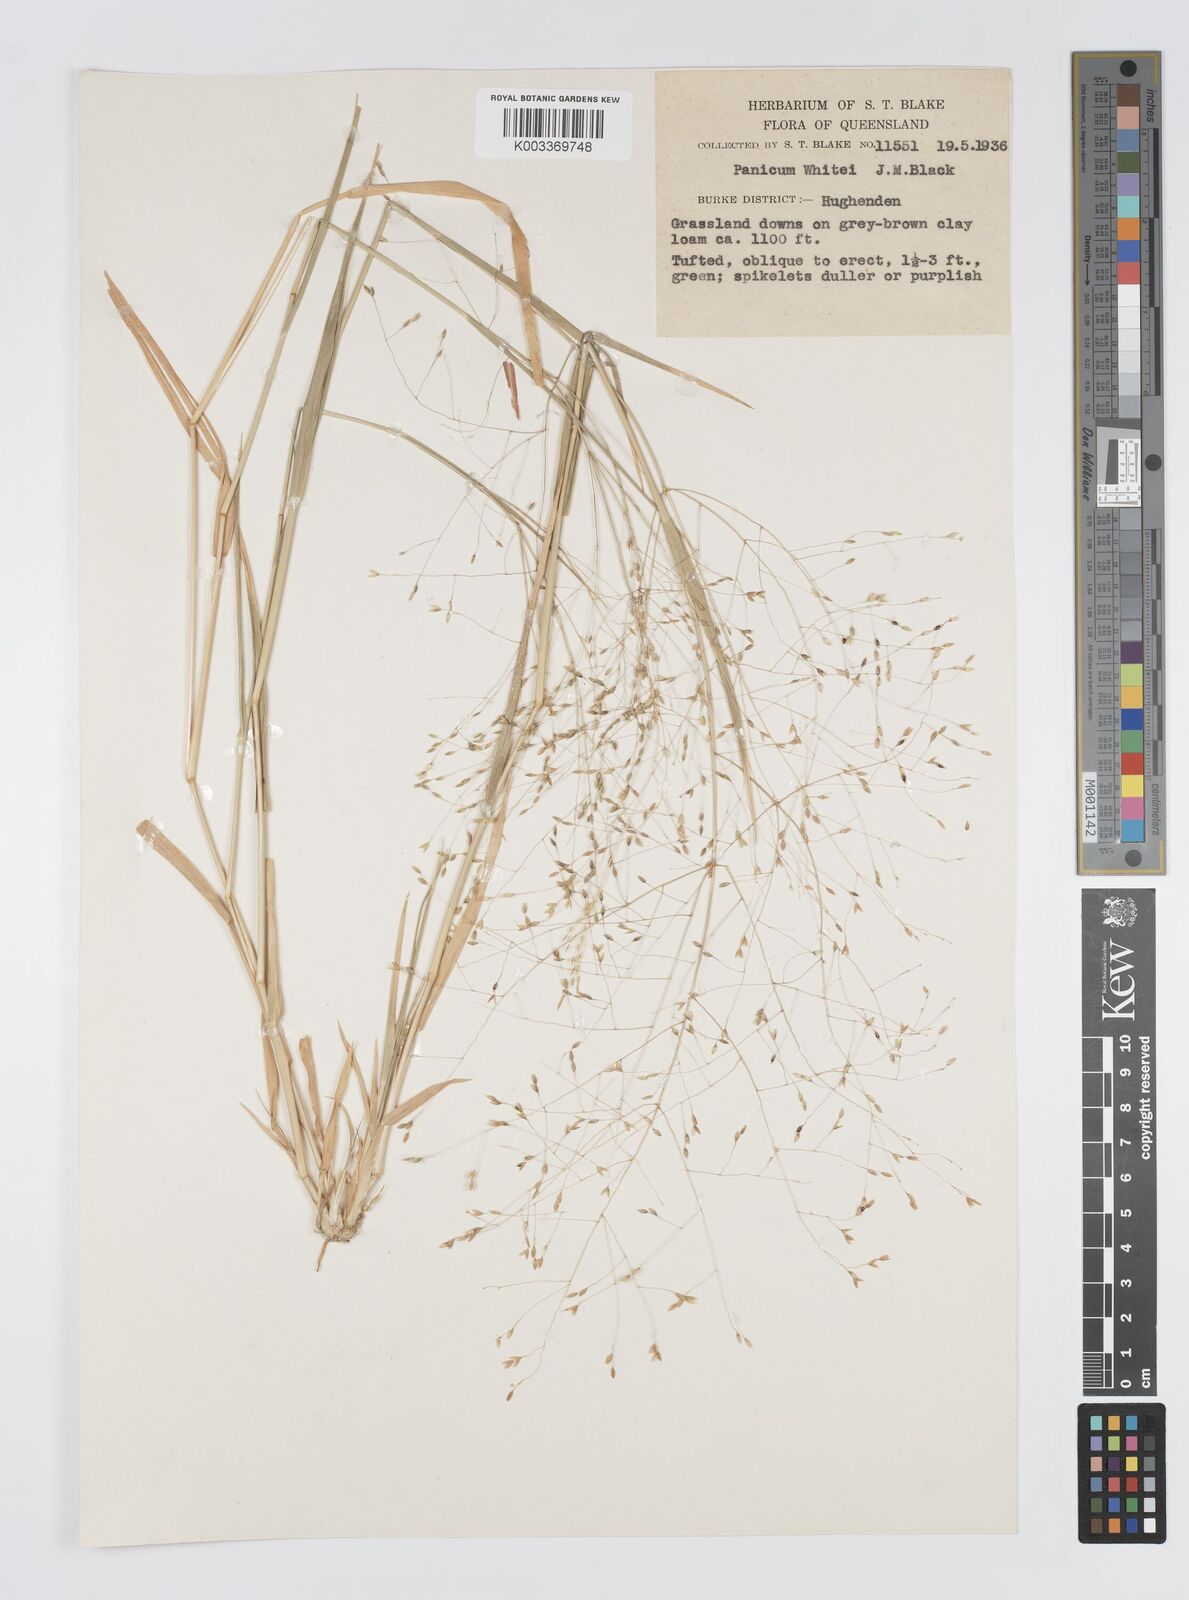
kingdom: Plantae
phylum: Tracheophyta
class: Liliopsida
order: Poales
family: Poaceae
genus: Panicum
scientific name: Panicum laevinode
